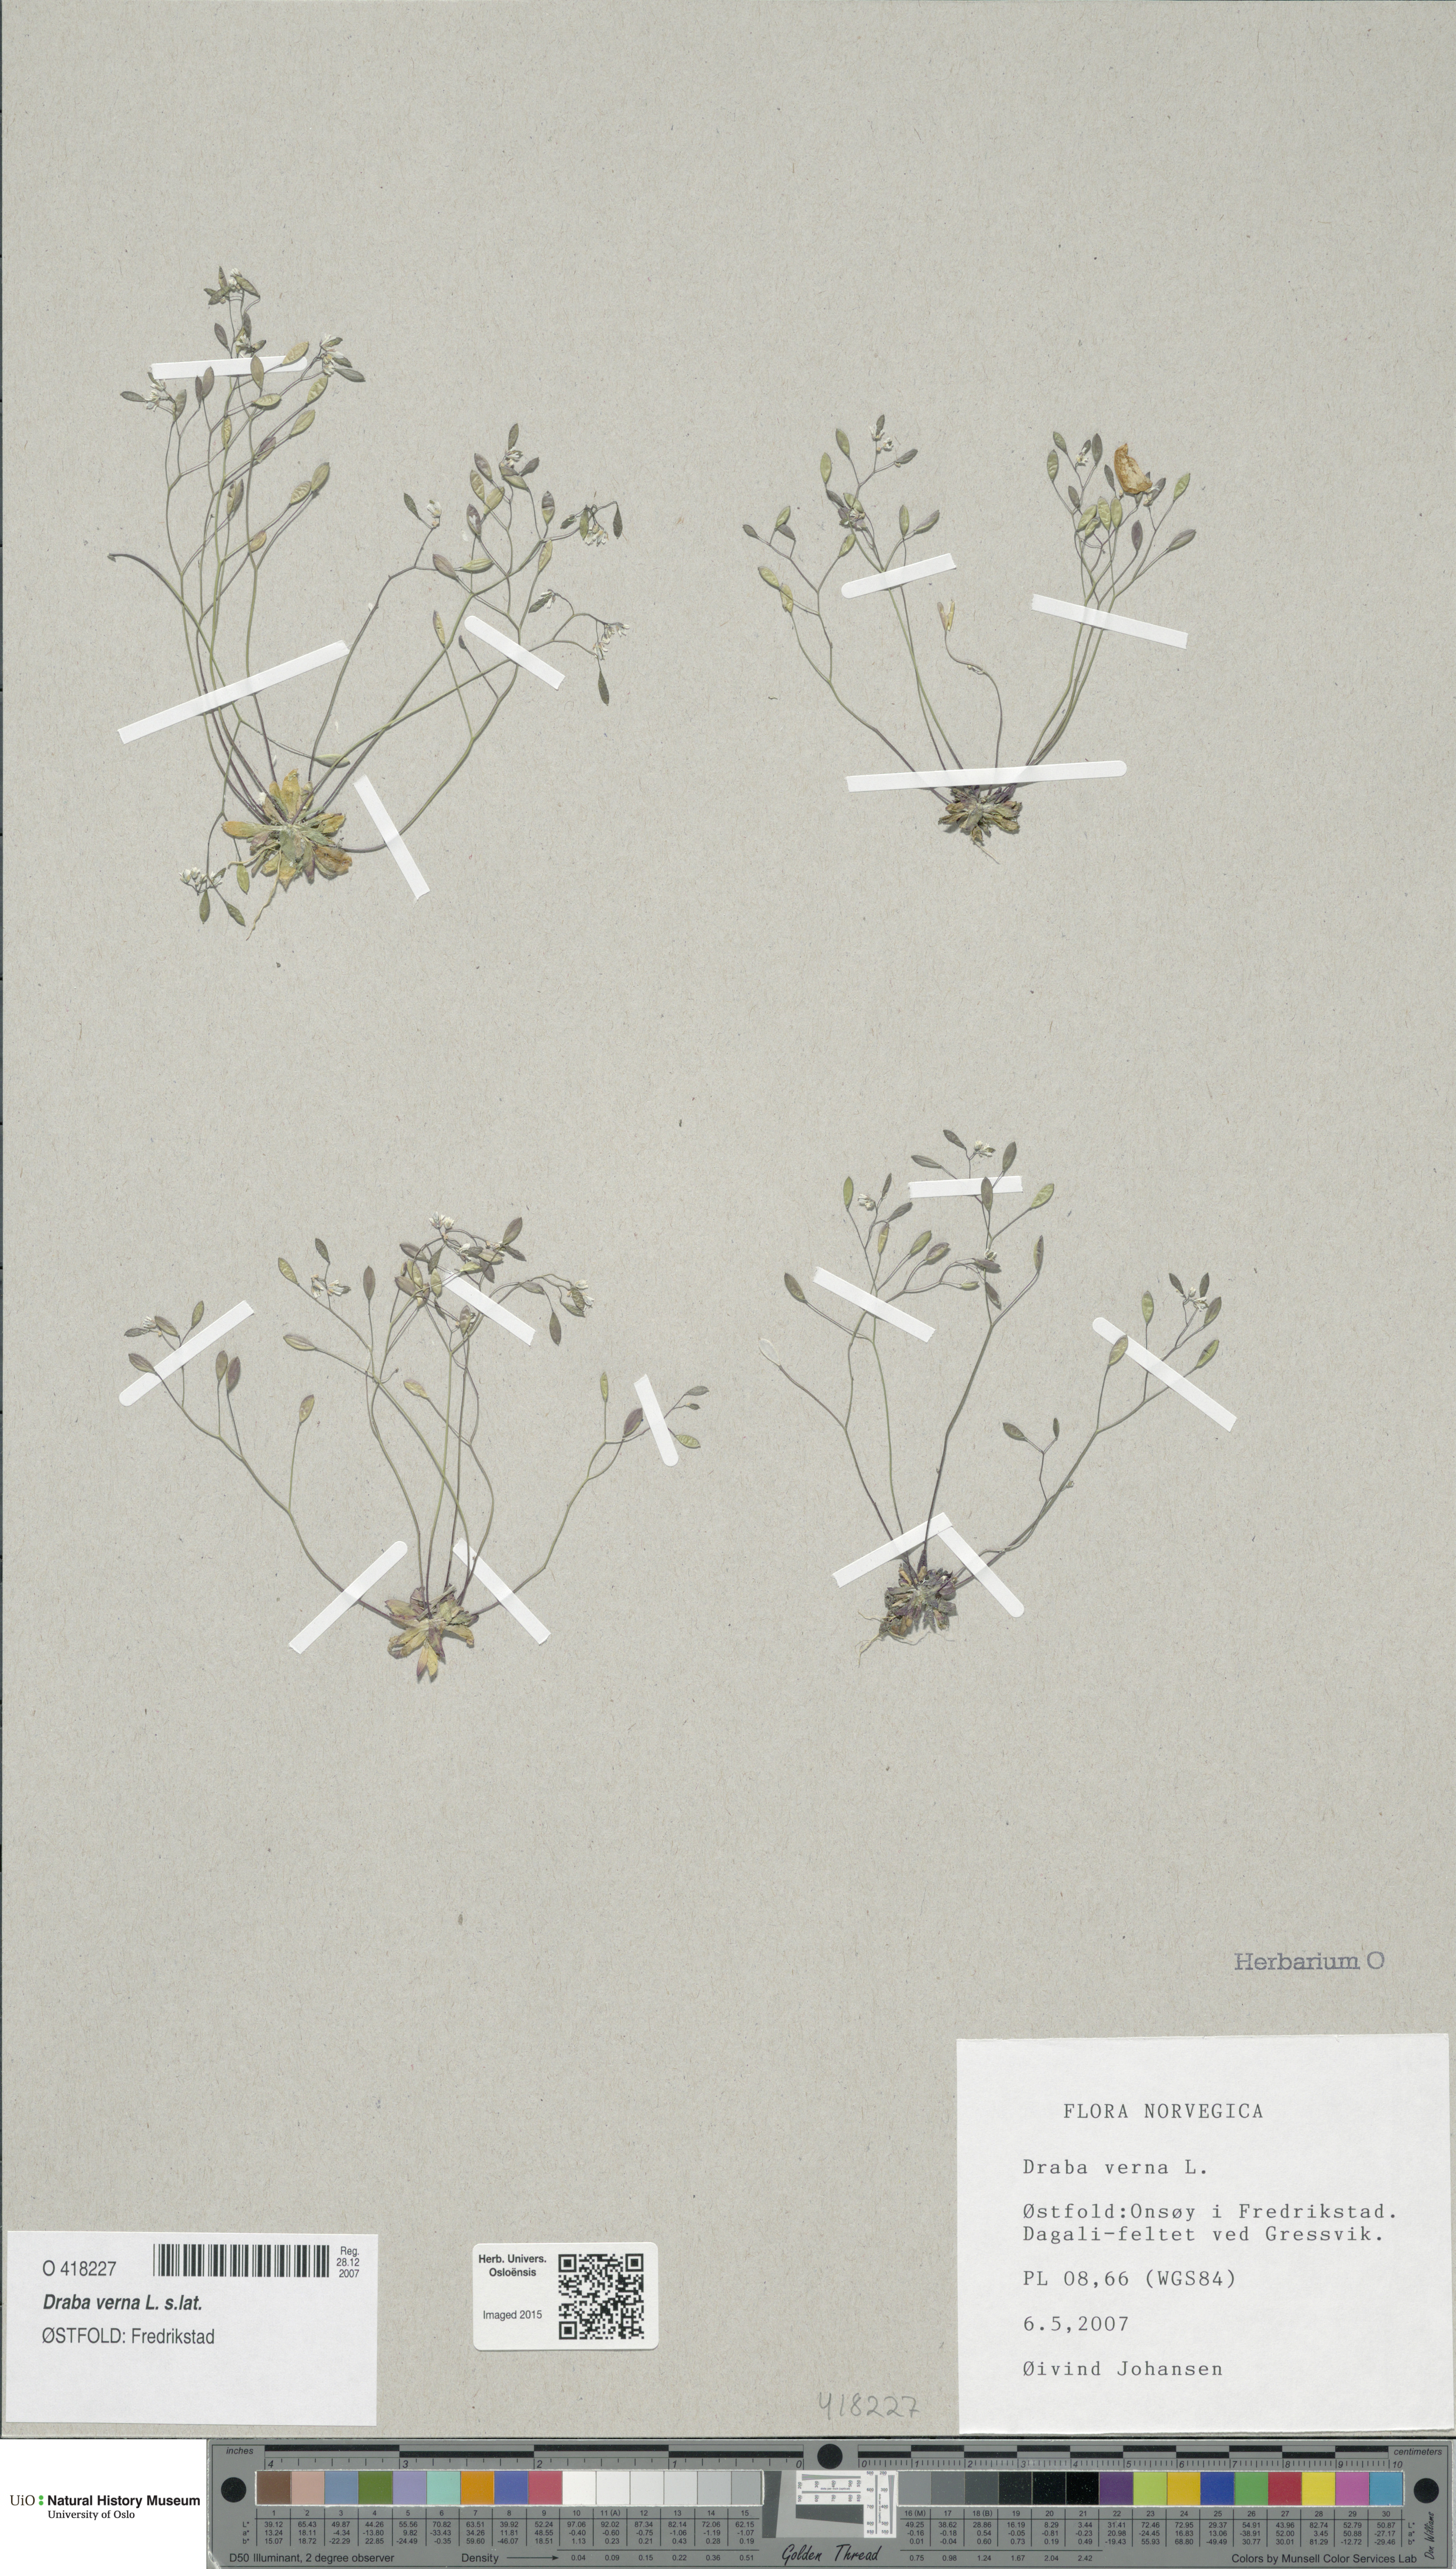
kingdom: Plantae
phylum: Tracheophyta
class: Magnoliopsida
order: Brassicales
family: Brassicaceae
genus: Draba
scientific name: Draba verna
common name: Spring draba
